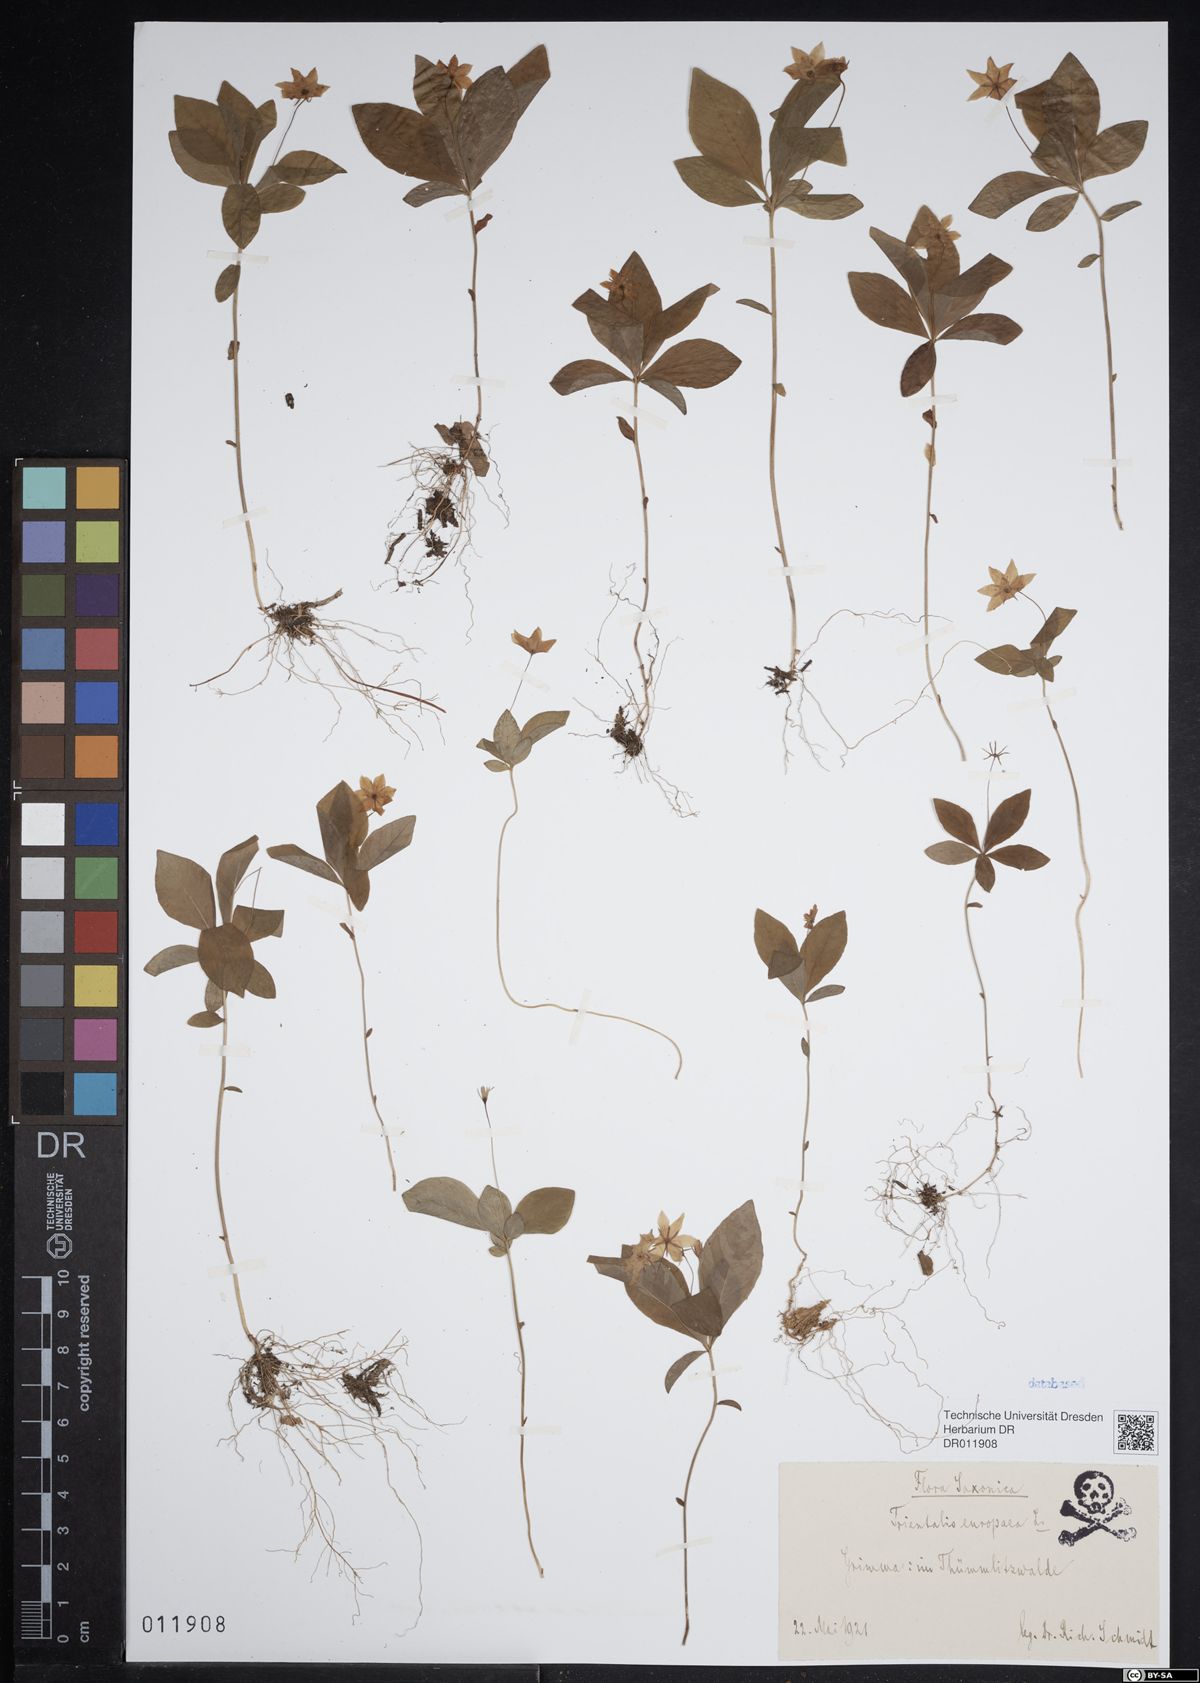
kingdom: Plantae
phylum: Tracheophyta
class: Magnoliopsida
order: Ericales
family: Primulaceae
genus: Lysimachia
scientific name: Lysimachia europaea
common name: Arctic starflower
